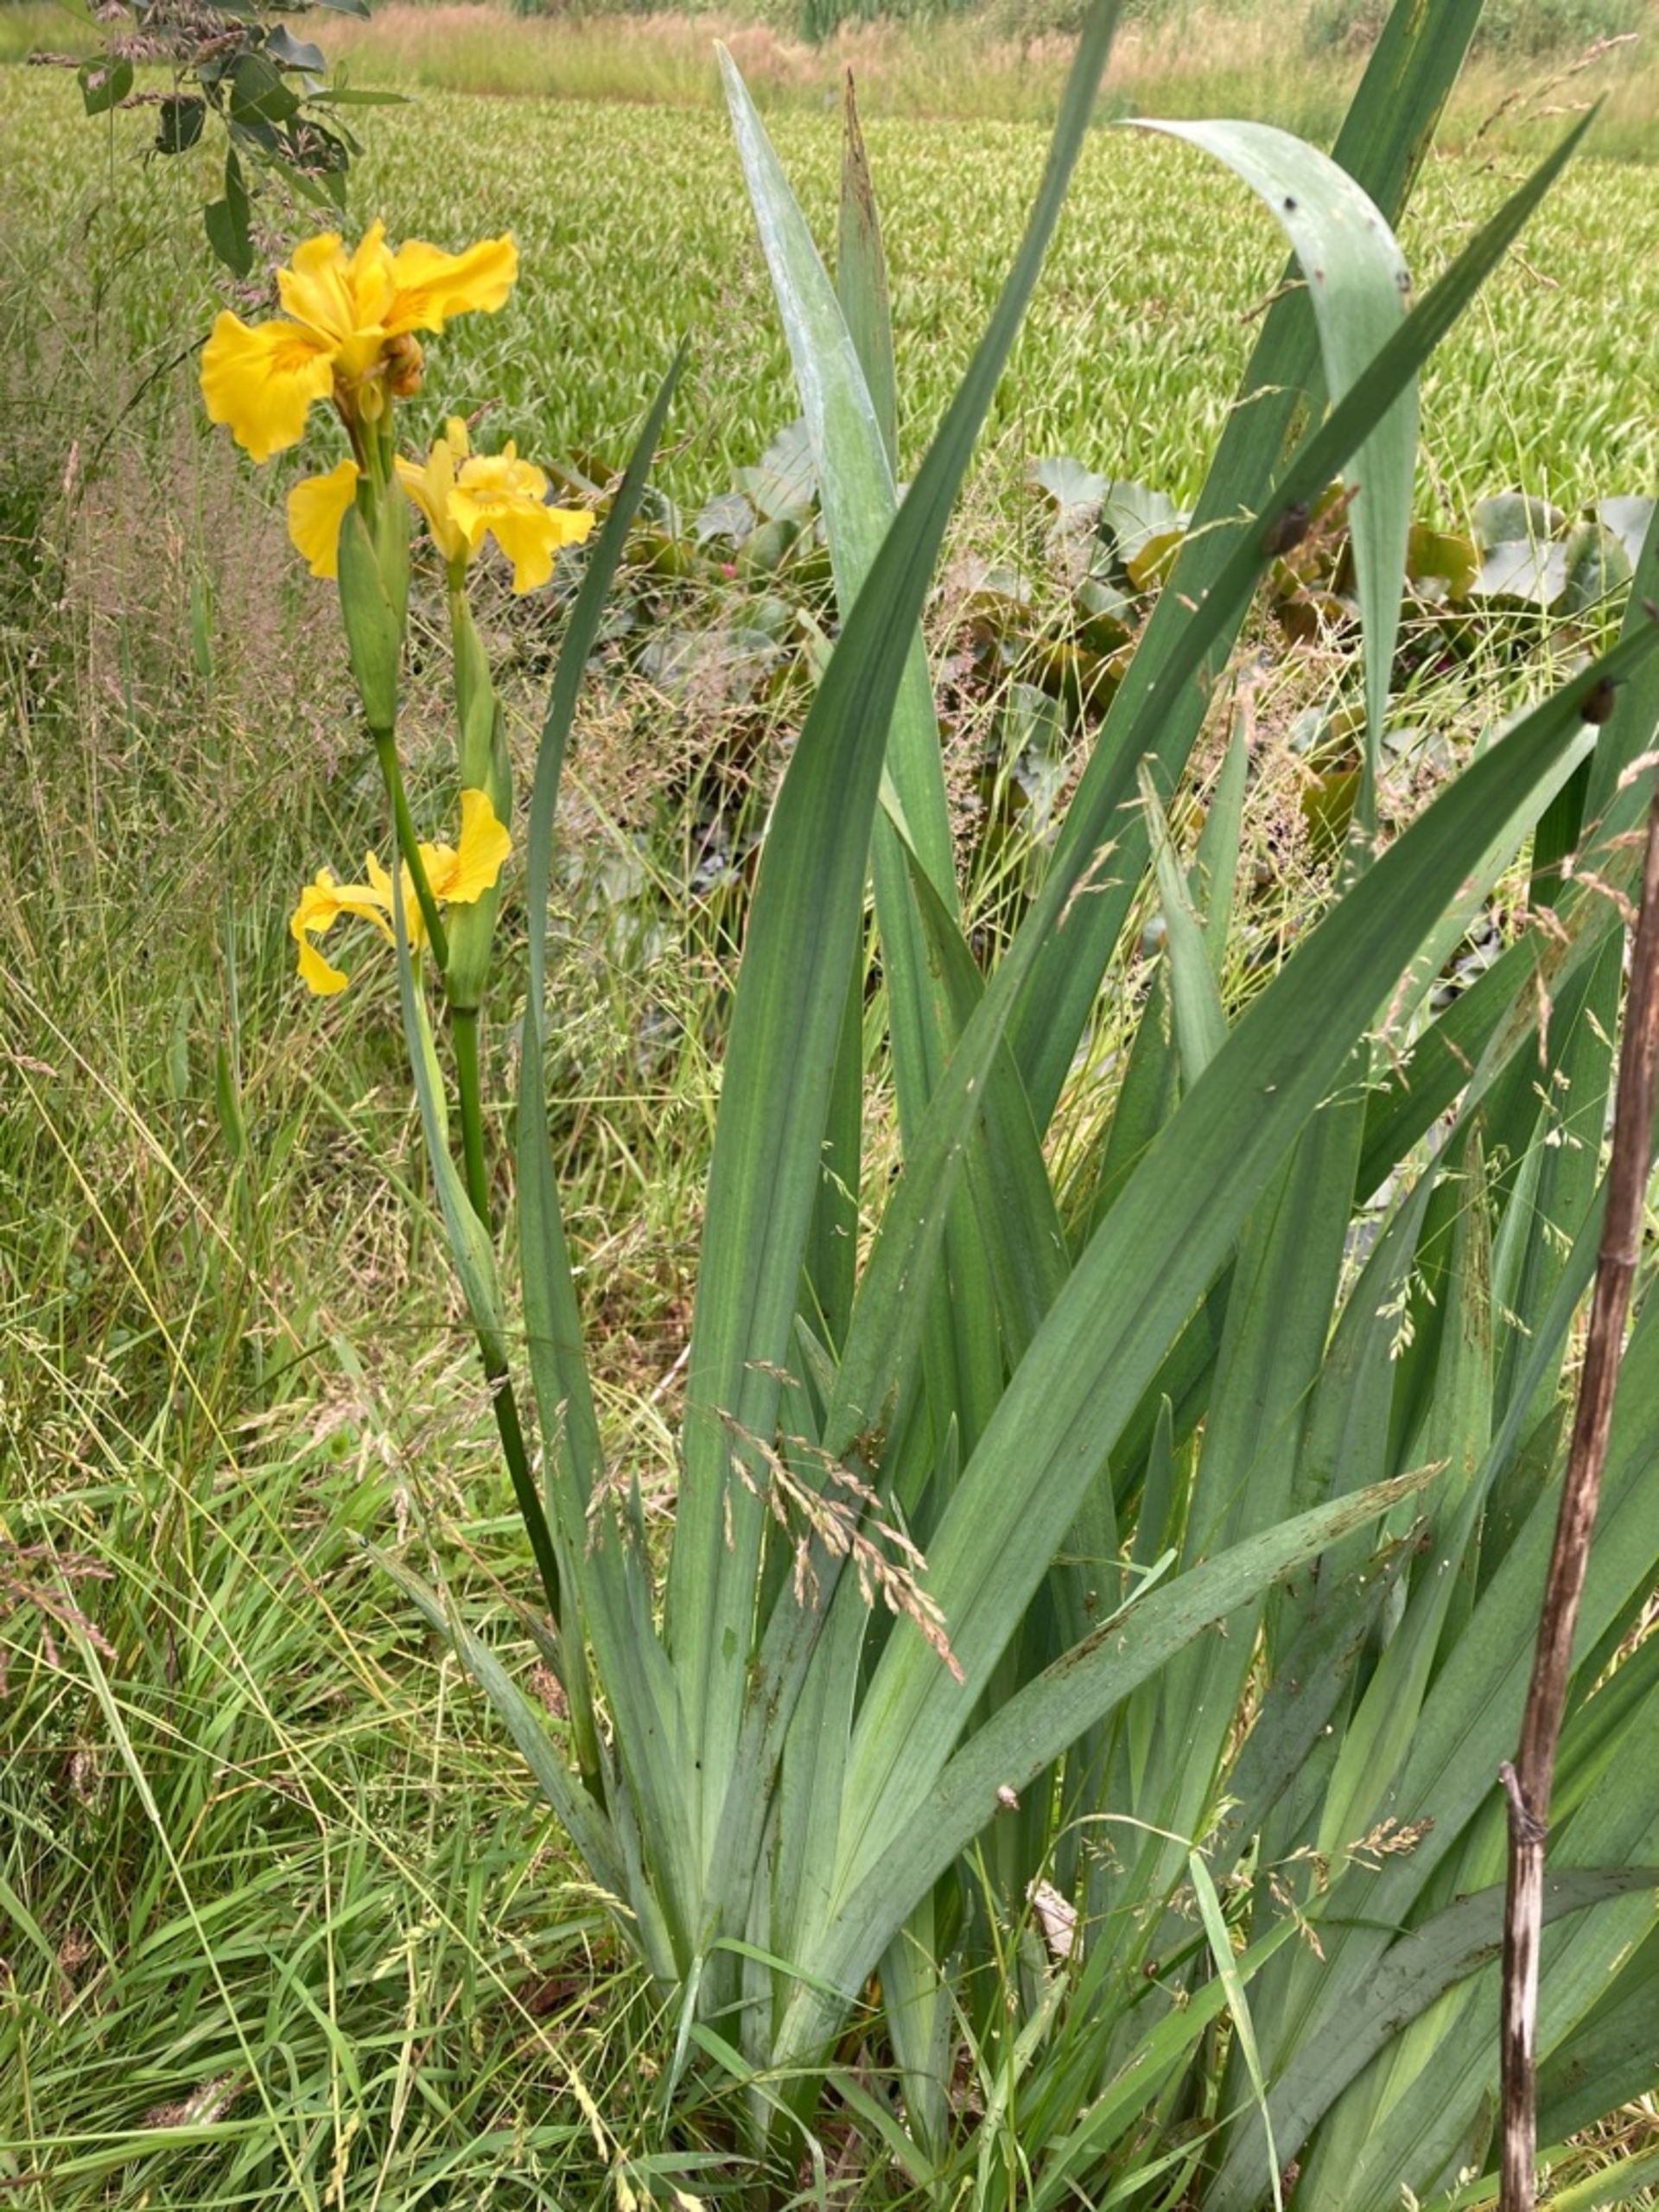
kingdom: Plantae
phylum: Tracheophyta
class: Liliopsida
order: Asparagales
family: Iridaceae
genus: Iris
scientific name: Iris pseudacorus
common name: Gul iris
